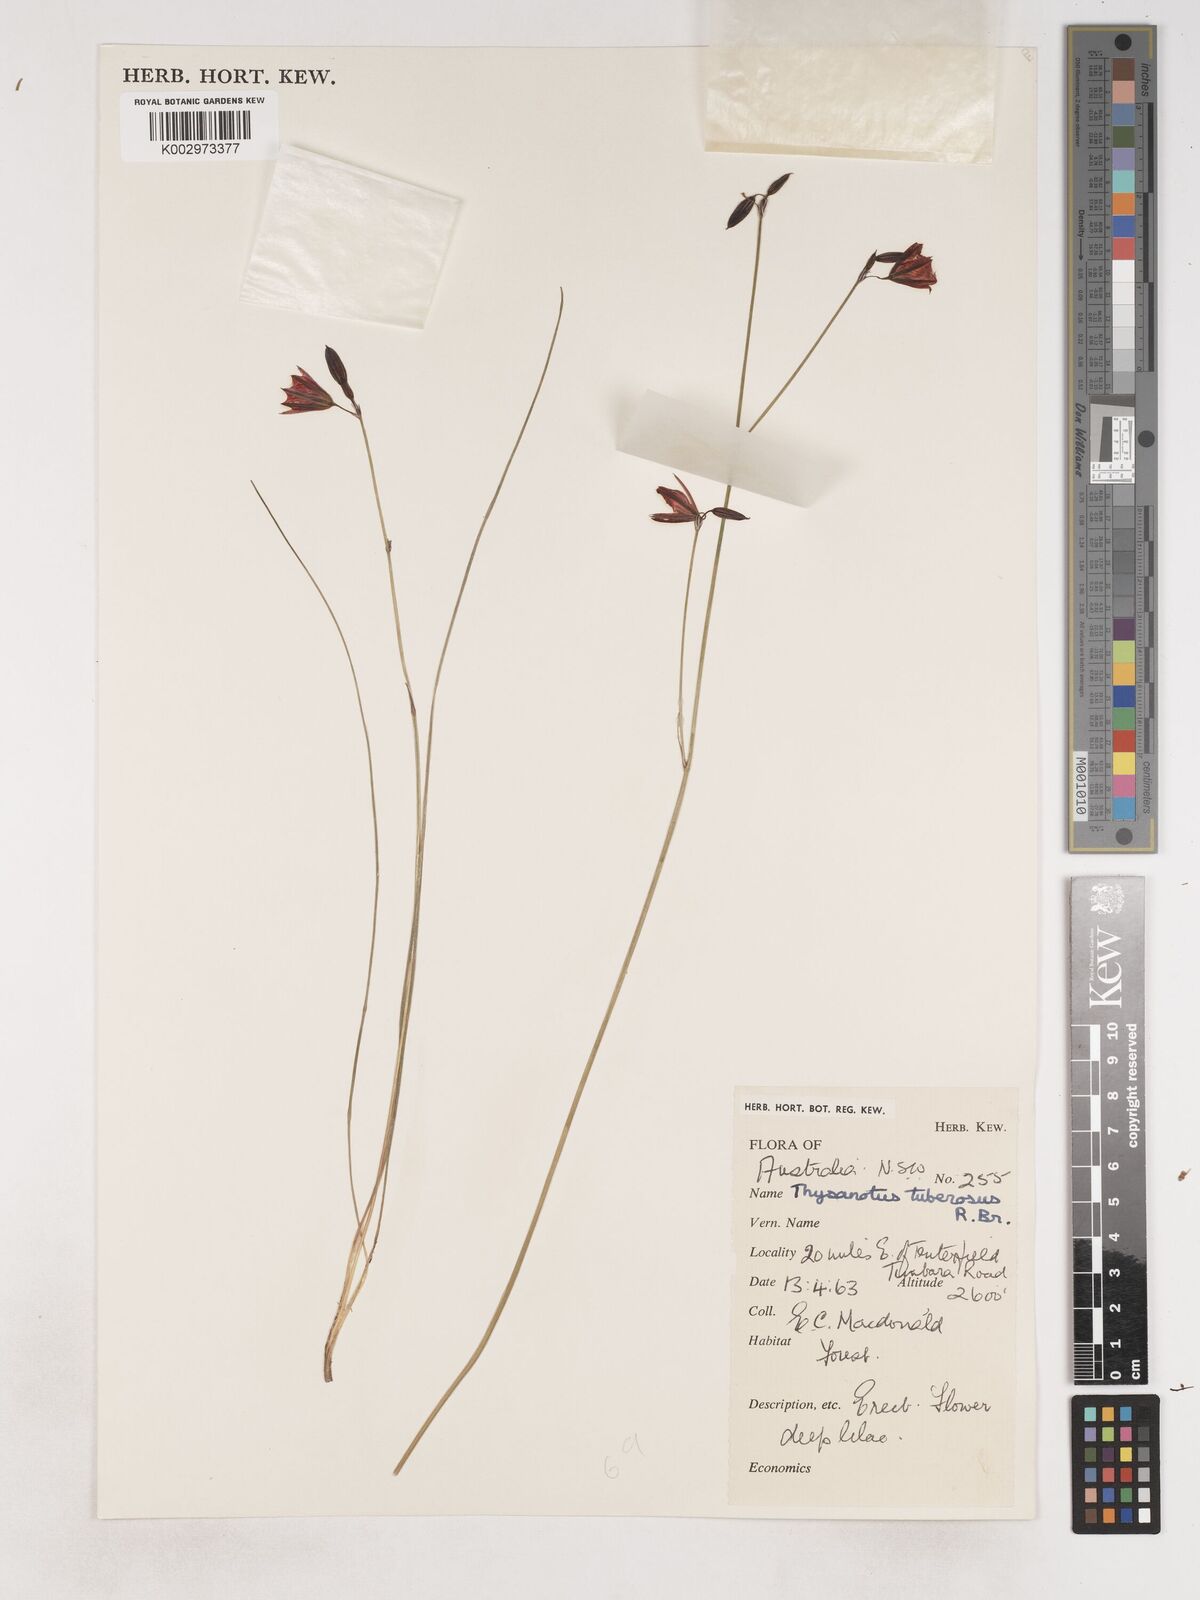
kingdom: Plantae
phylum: Tracheophyta
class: Liliopsida
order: Asparagales
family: Asparagaceae
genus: Thysanotus
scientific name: Thysanotus tuberosus
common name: Common fringed-lily
